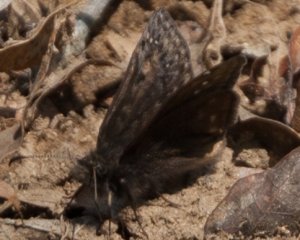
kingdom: Animalia
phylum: Arthropoda
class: Insecta
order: Lepidoptera
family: Hesperiidae
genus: Gesta
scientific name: Gesta
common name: Juvenal's Duskywing
